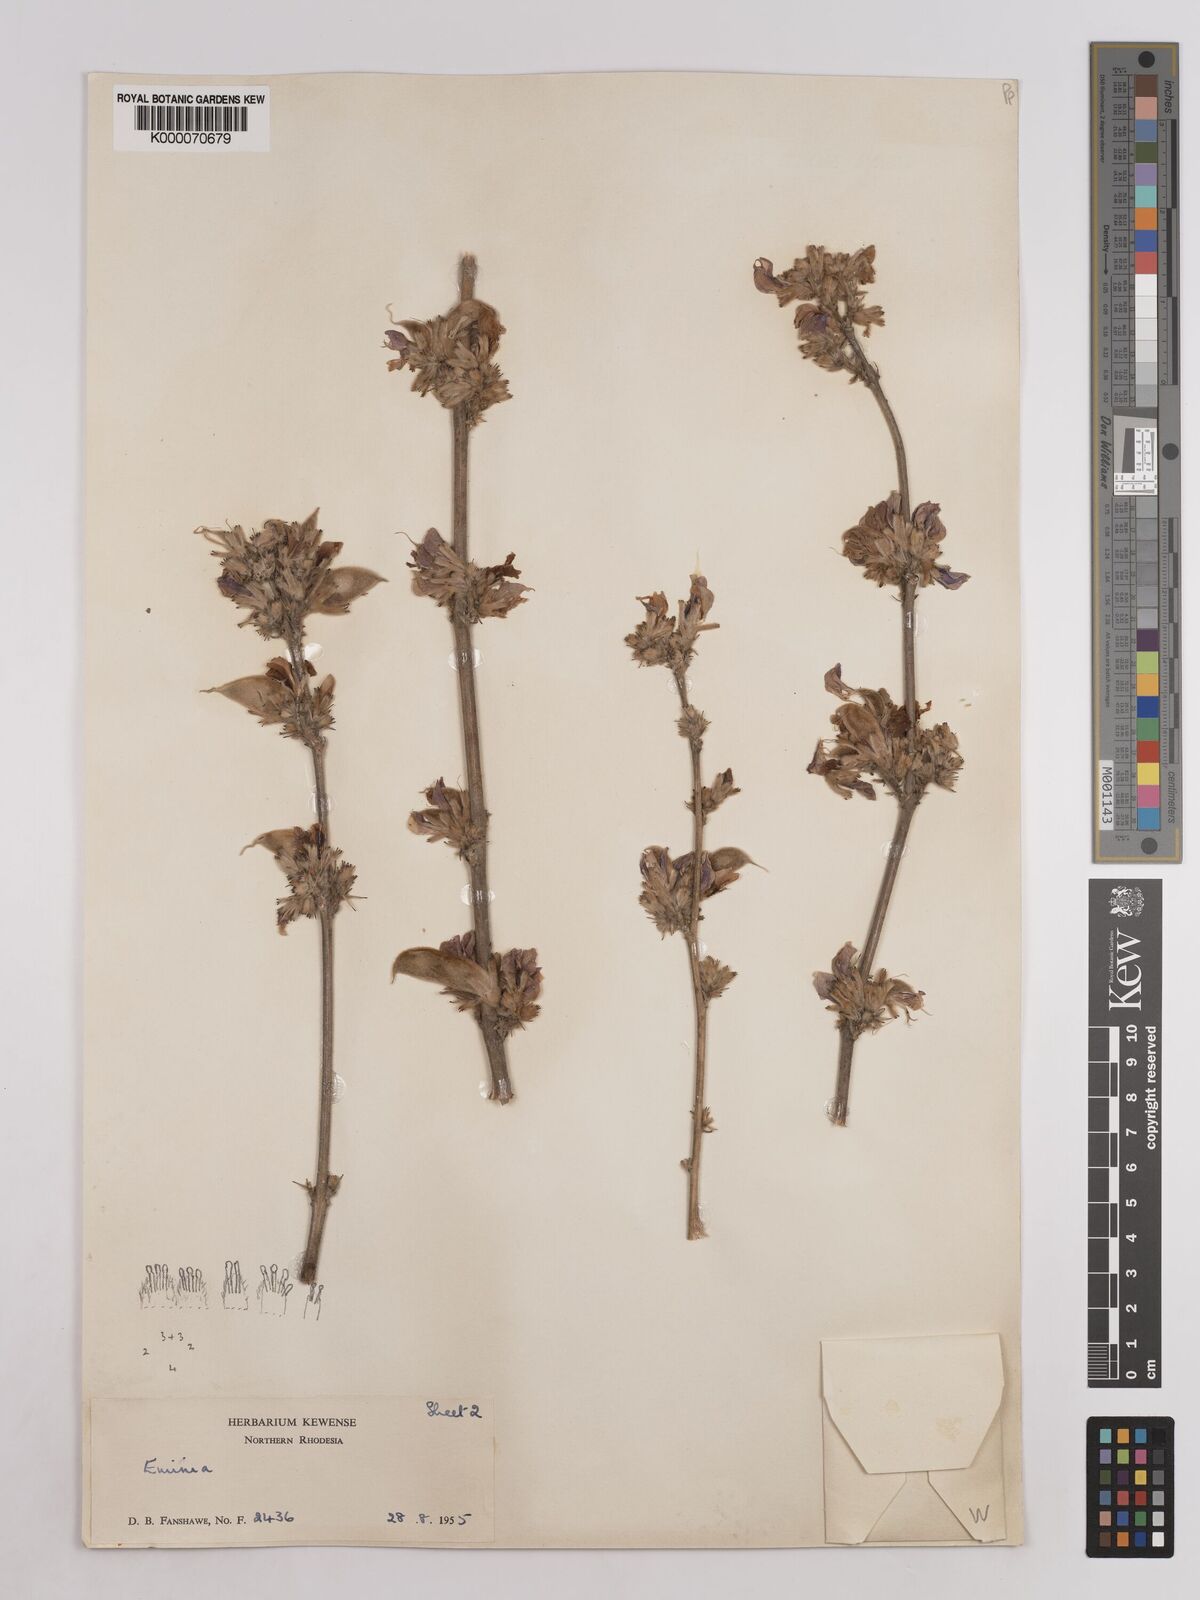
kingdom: Plantae
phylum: Tracheophyta
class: Magnoliopsida
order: Fabales
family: Fabaceae
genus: Eminia
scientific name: Eminia harmsiana
